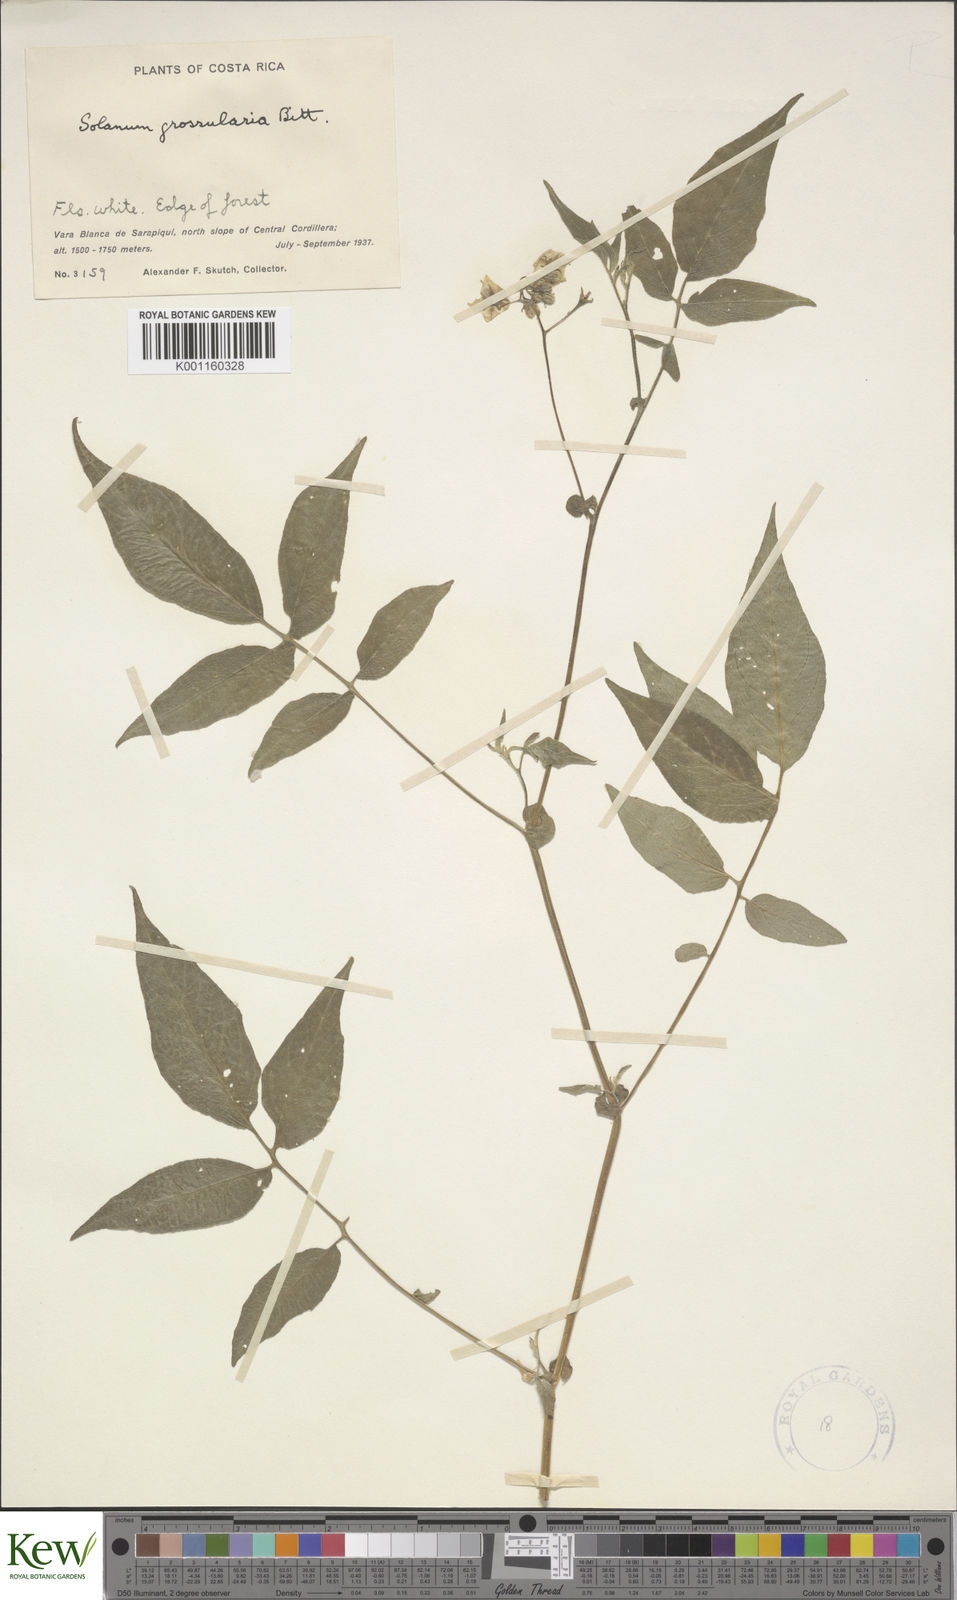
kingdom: Plantae
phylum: Tracheophyta
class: Magnoliopsida
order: Solanales
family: Solanaceae
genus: Solanum
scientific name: Solanum caripense
